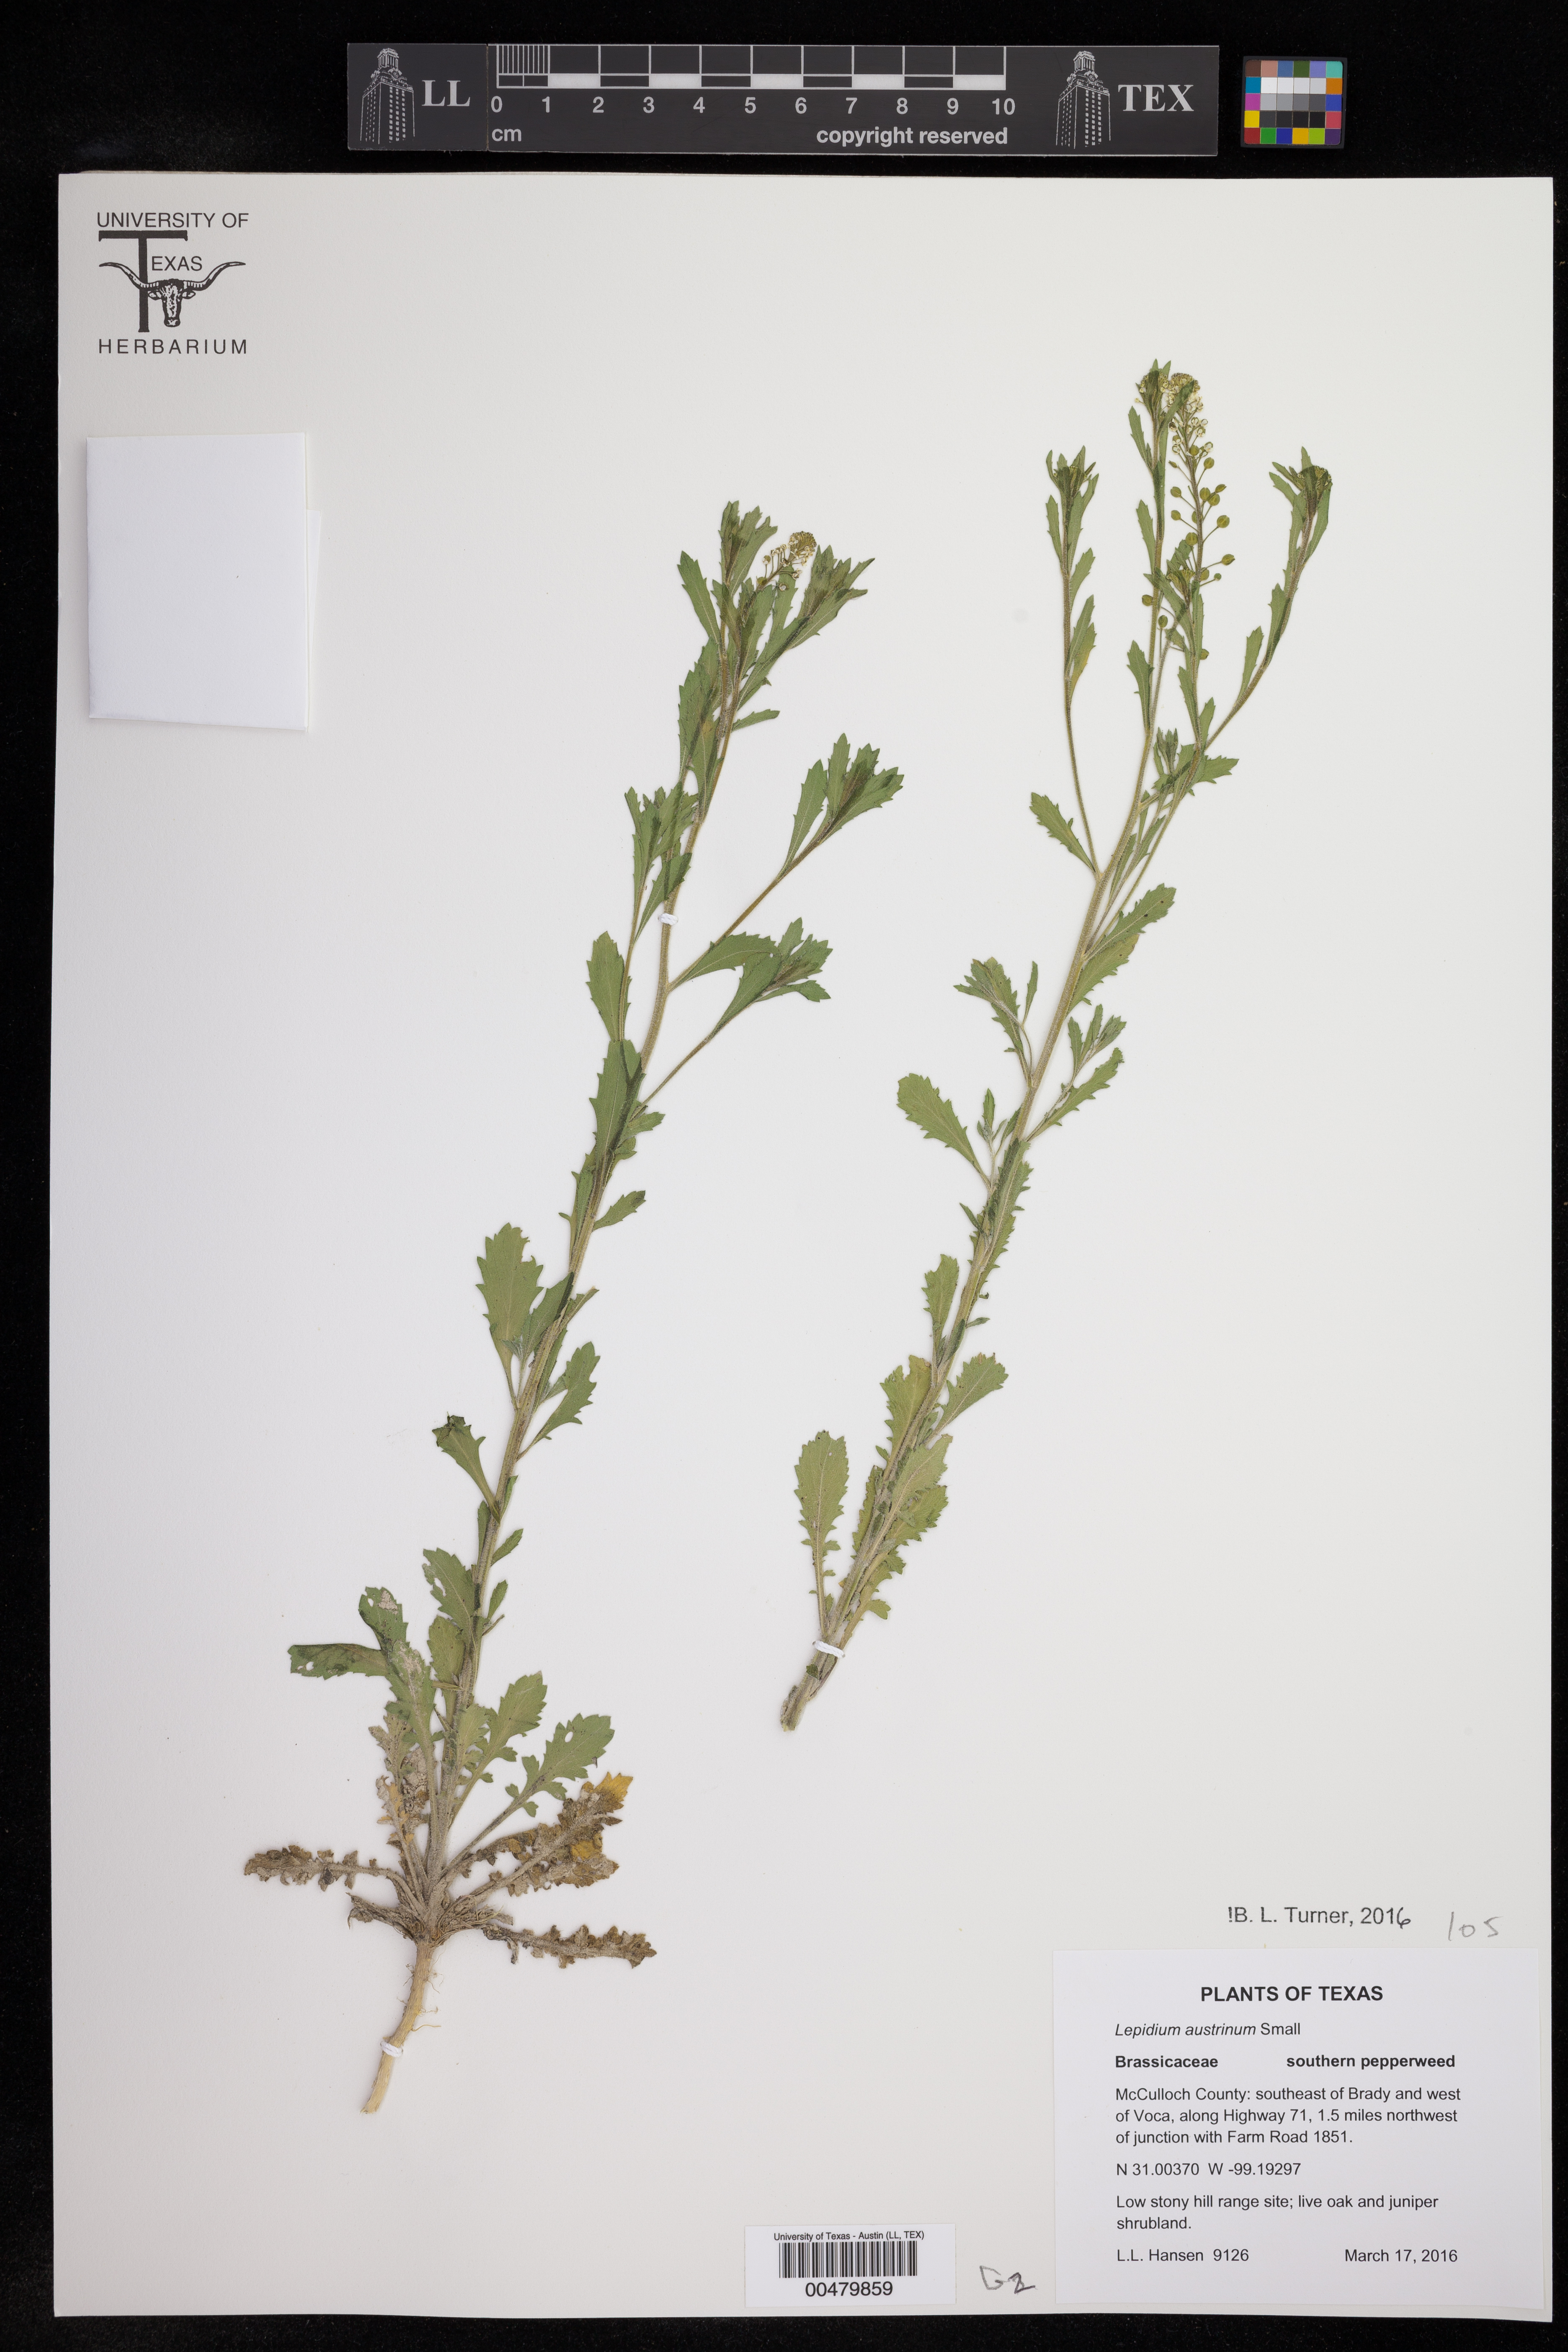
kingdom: Plantae
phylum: Tracheophyta
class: Magnoliopsida
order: Brassicales
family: Brassicaceae
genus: Lepidium
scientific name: Lepidium austrinum
